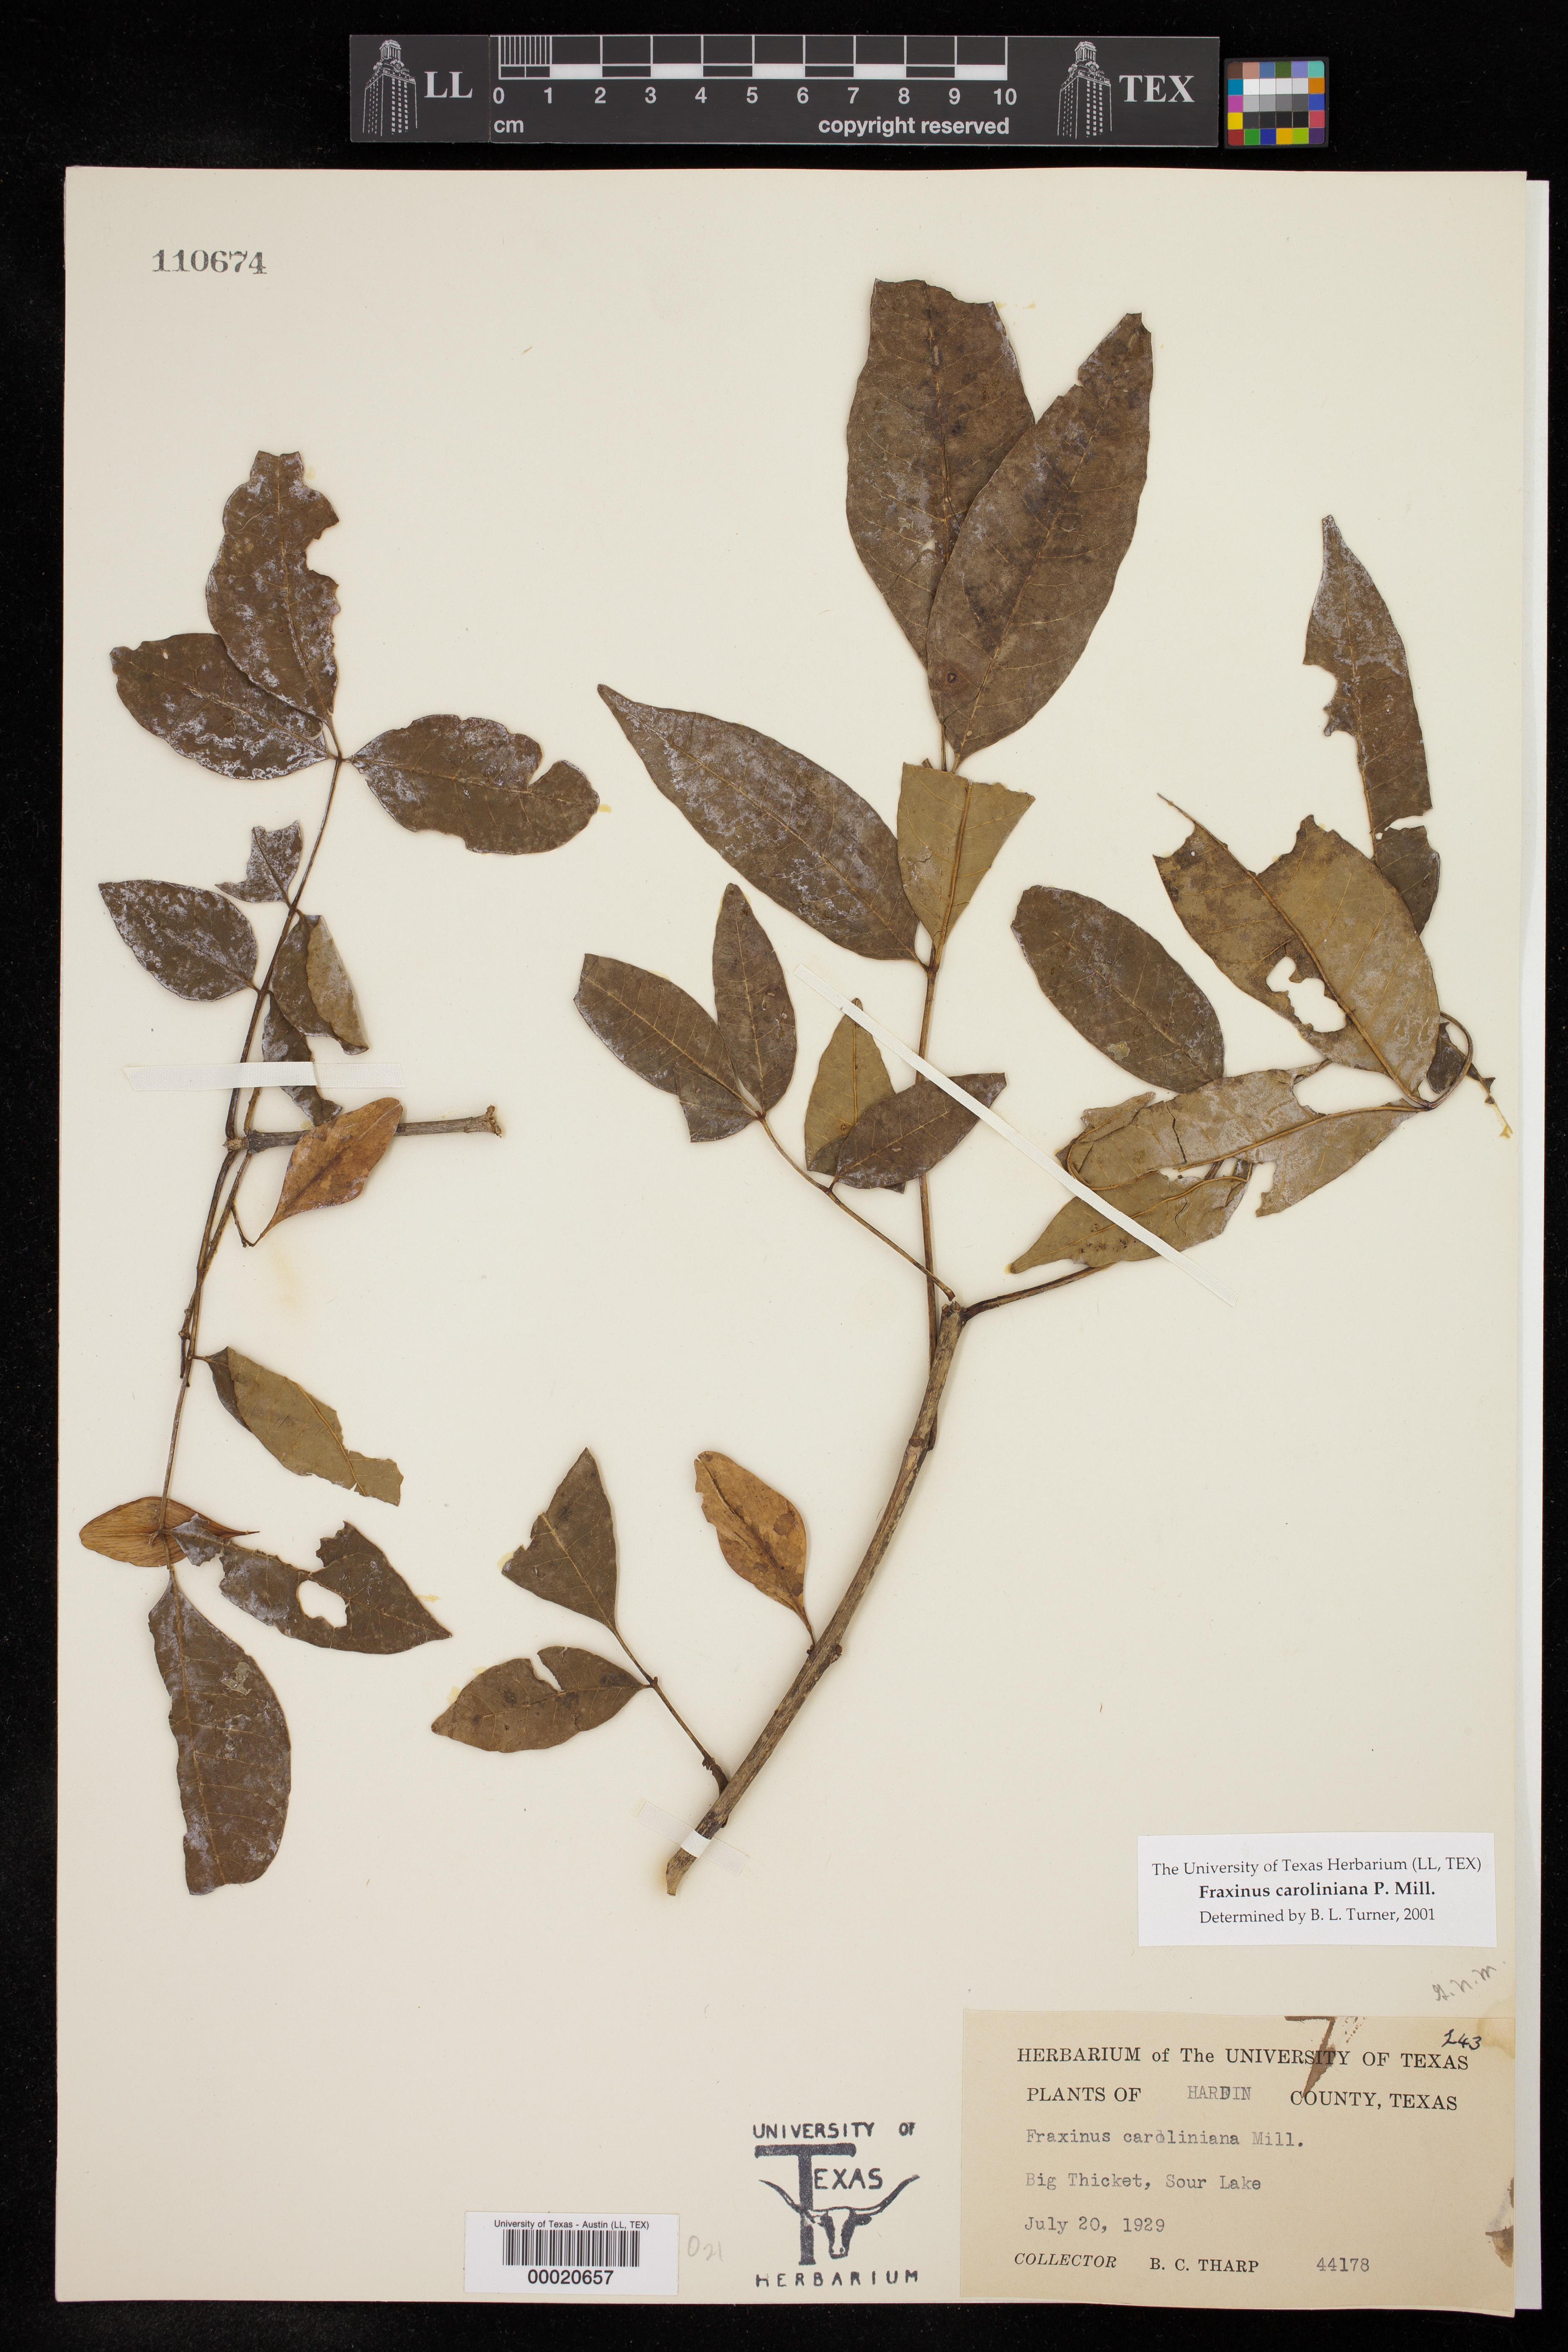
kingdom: Plantae
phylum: Tracheophyta
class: Magnoliopsida
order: Lamiales
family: Oleaceae
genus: Fraxinus
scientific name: Fraxinus caroliniana
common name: Carolina ash
